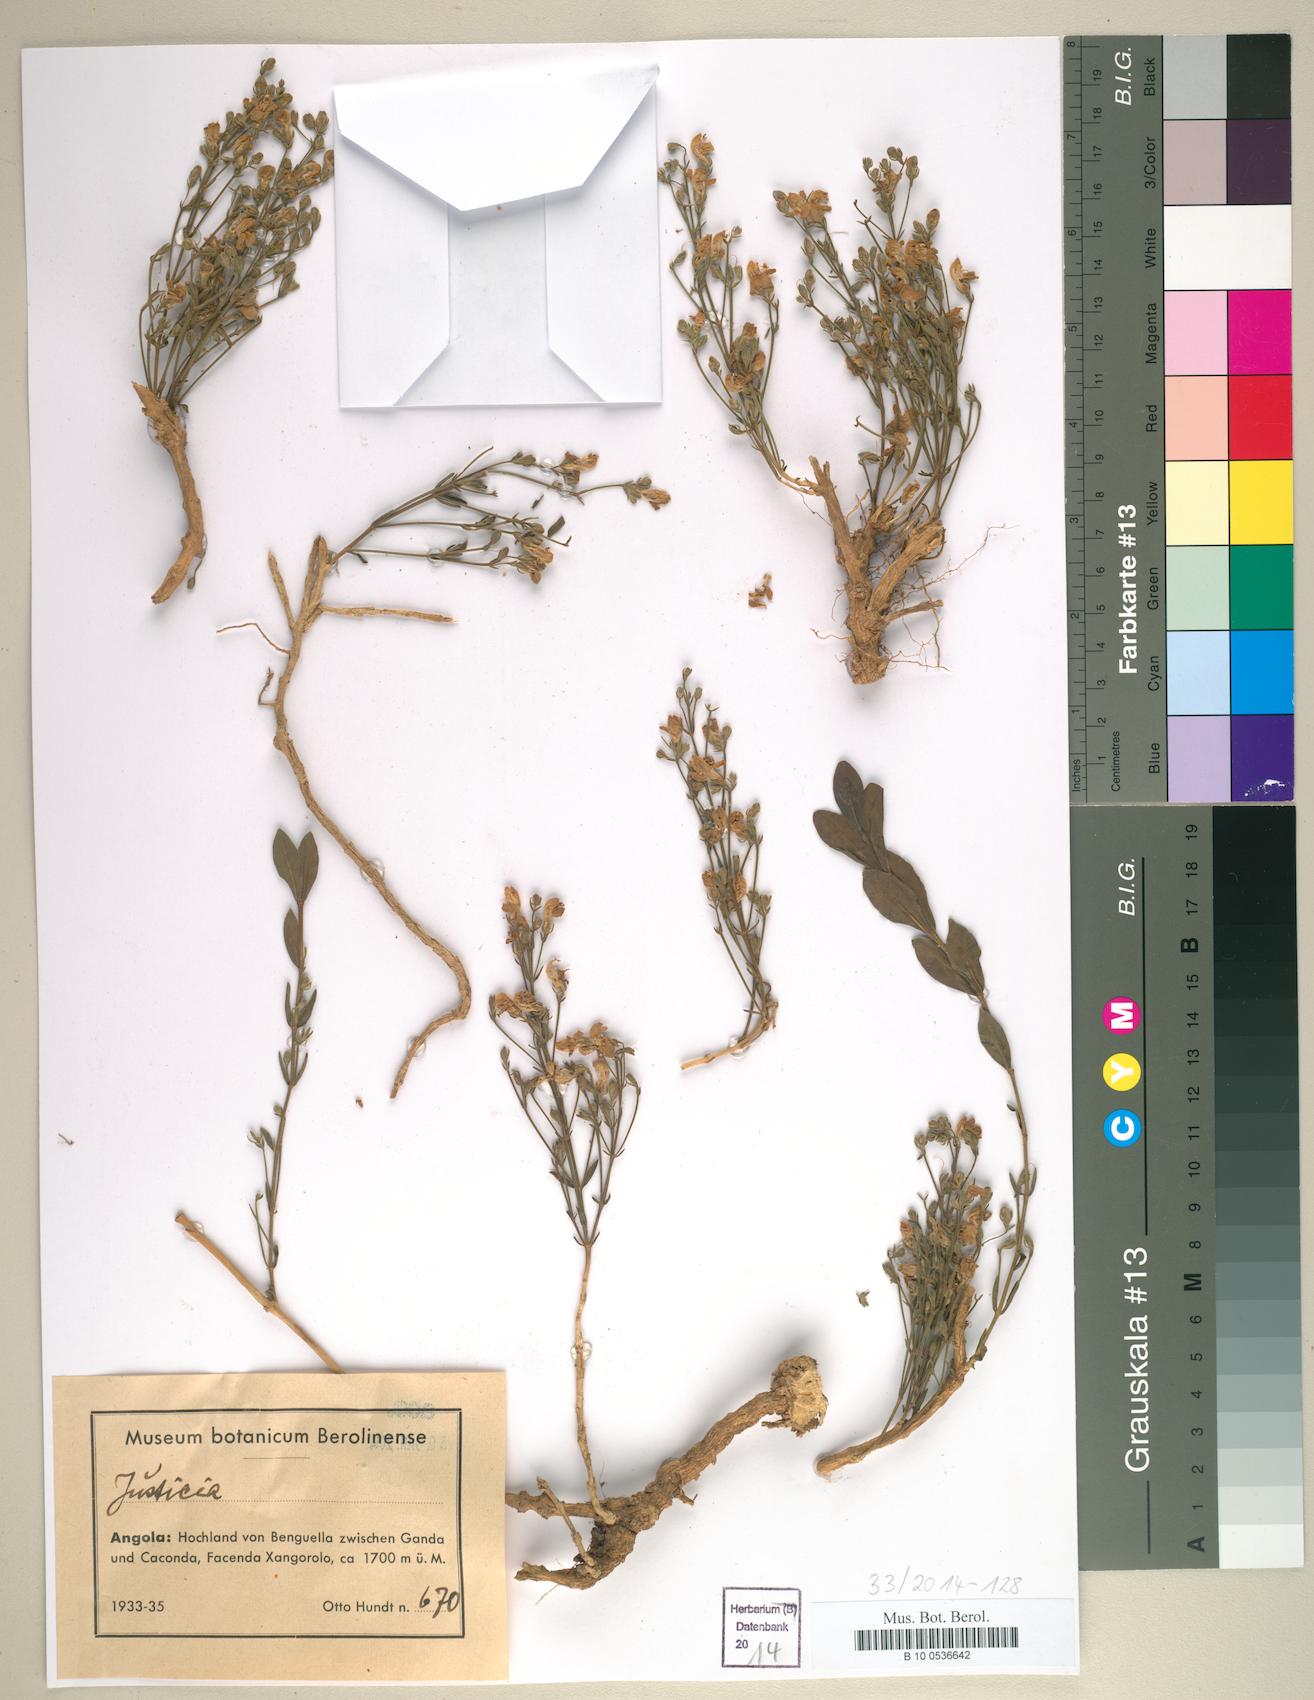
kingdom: Plantae
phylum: Tracheophyta
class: Magnoliopsida
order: Lamiales
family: Acanthaceae
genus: Justicia
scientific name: Justicia
